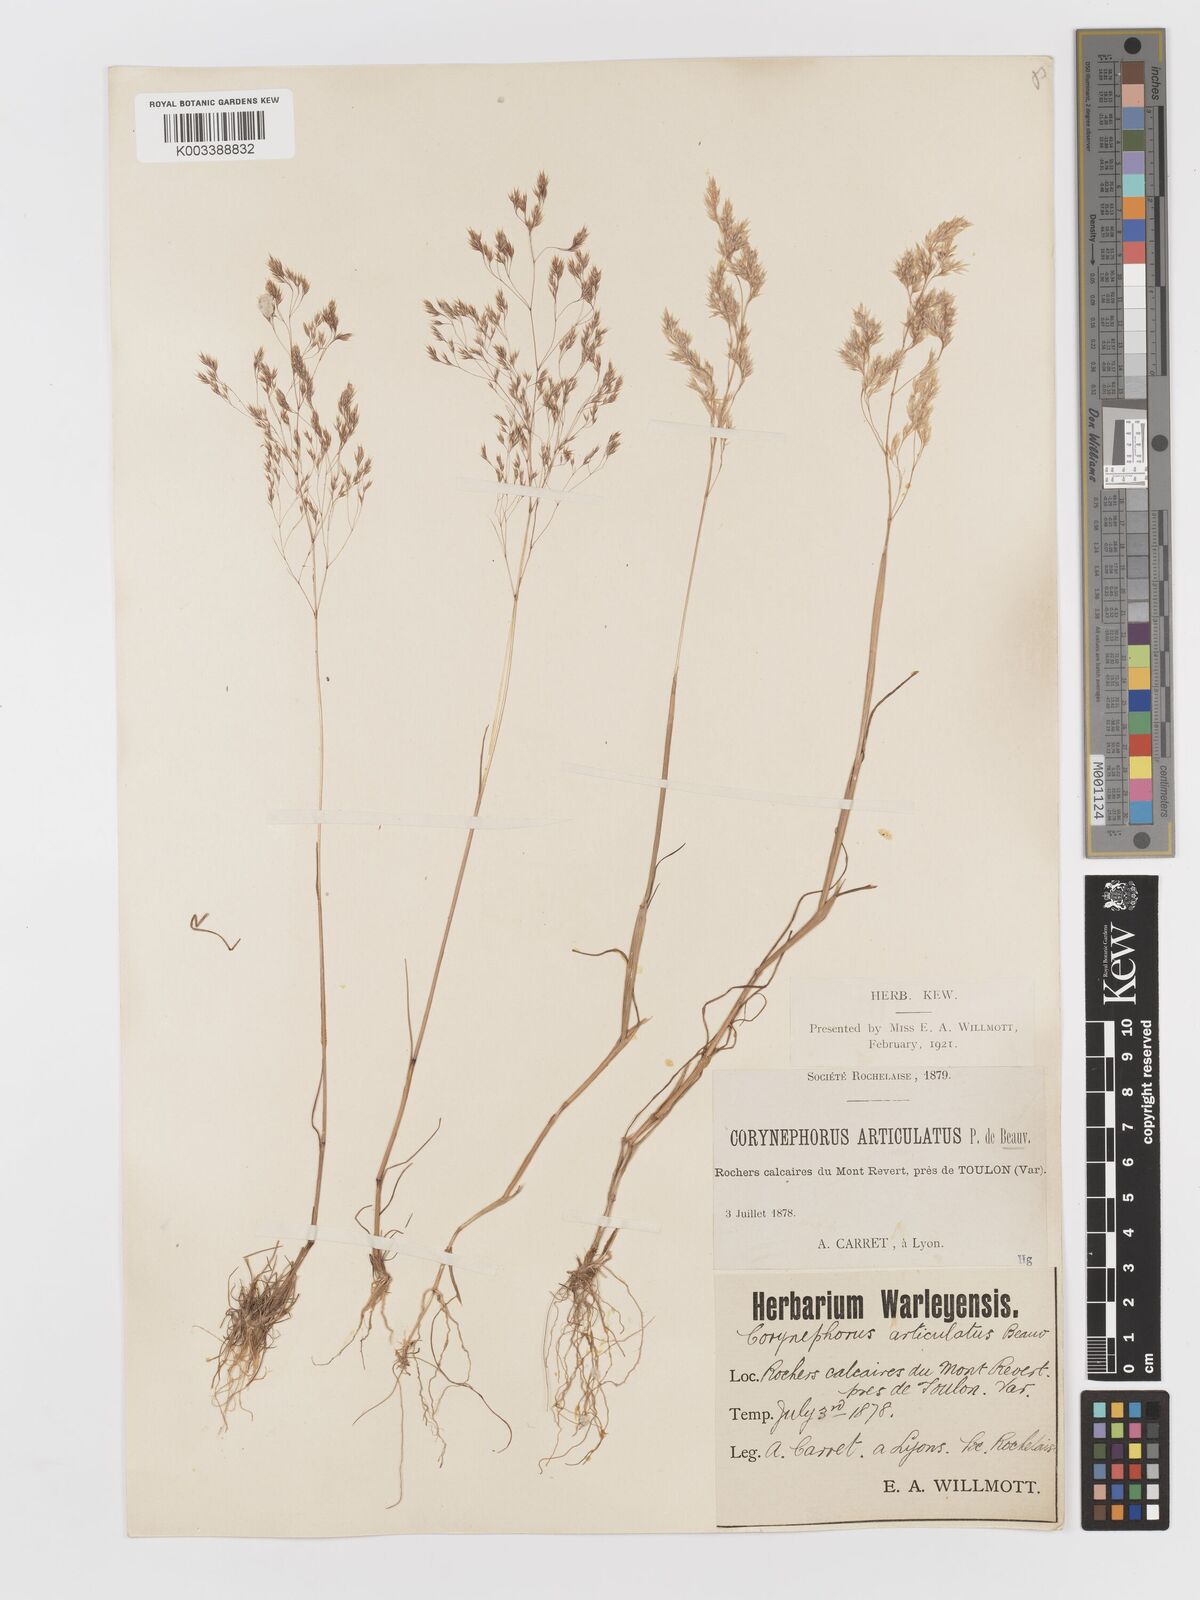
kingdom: Plantae
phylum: Tracheophyta
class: Liliopsida
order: Poales
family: Poaceae
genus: Corynephorus
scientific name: Corynephorus divaricatus
